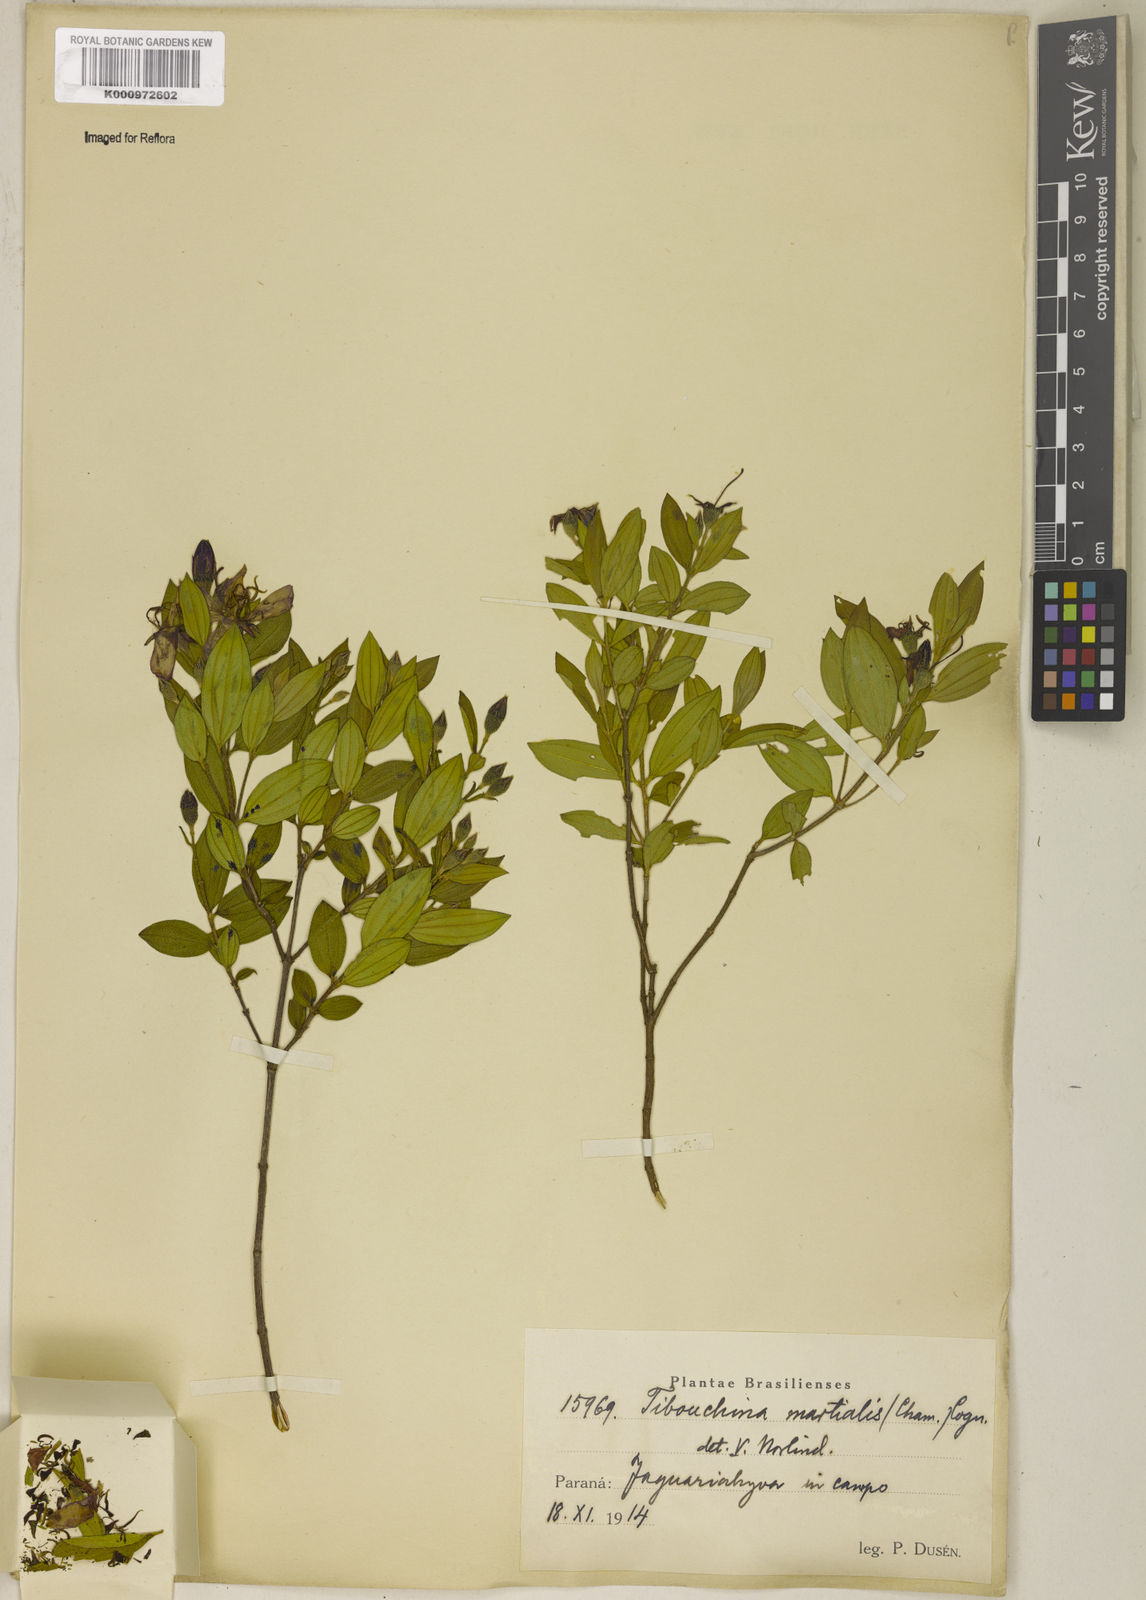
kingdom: Plantae
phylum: Tracheophyta
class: Magnoliopsida
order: Myrtales
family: Melastomataceae
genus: Pleroma
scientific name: Pleroma martiale
